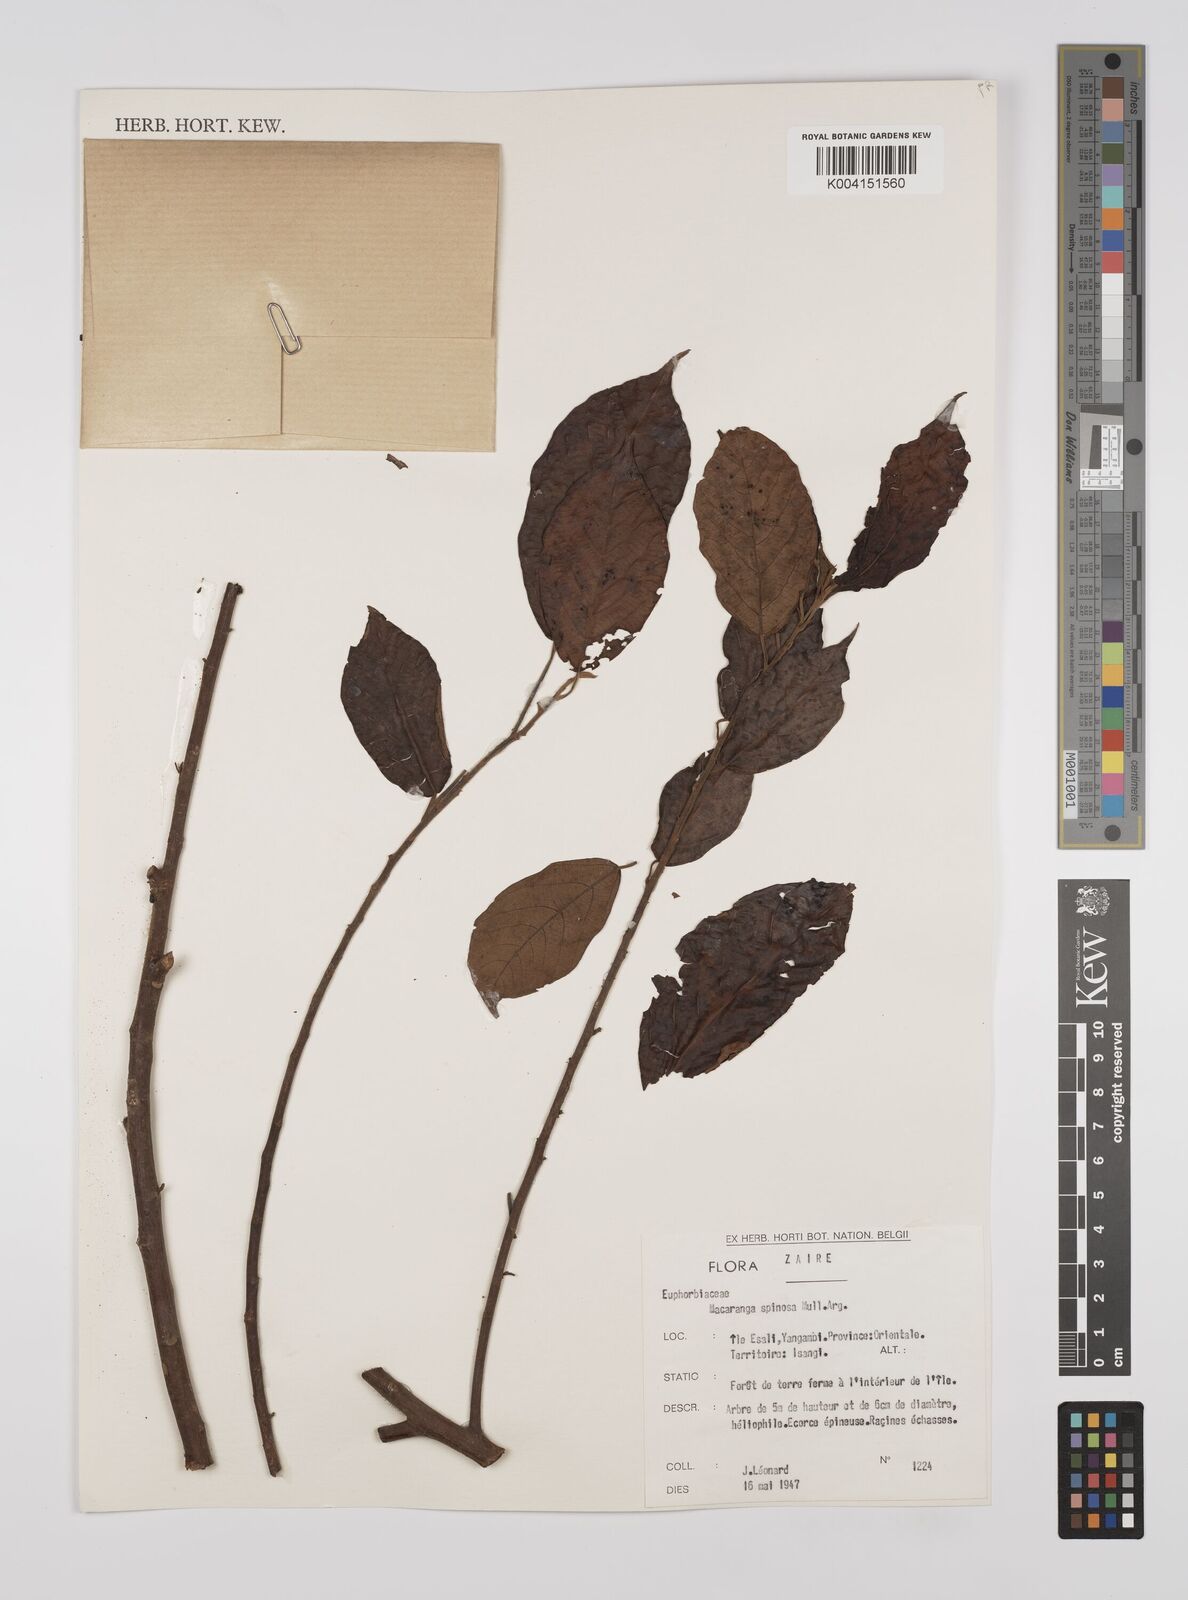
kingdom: Plantae
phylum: Tracheophyta
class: Magnoliopsida
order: Malpighiales
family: Euphorbiaceae
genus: Macaranga
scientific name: Macaranga spinosa
